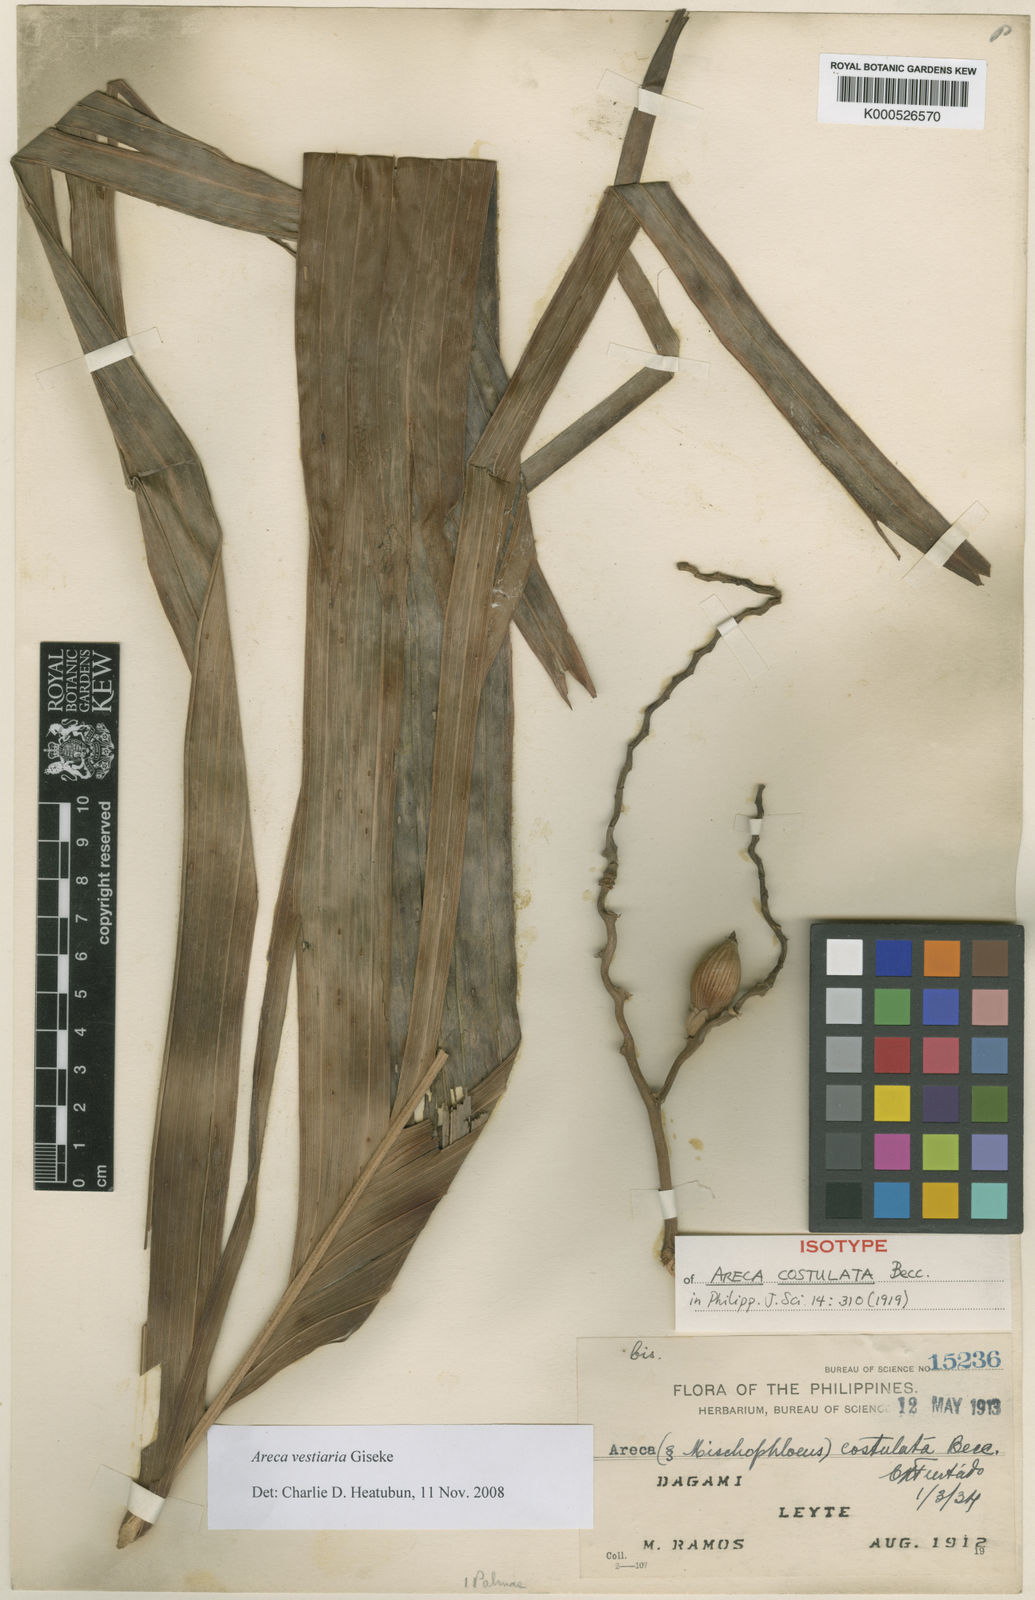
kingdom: Plantae
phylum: Tracheophyta
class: Liliopsida
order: Arecales
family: Arecaceae
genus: Areca
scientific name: Areca vestiaria
